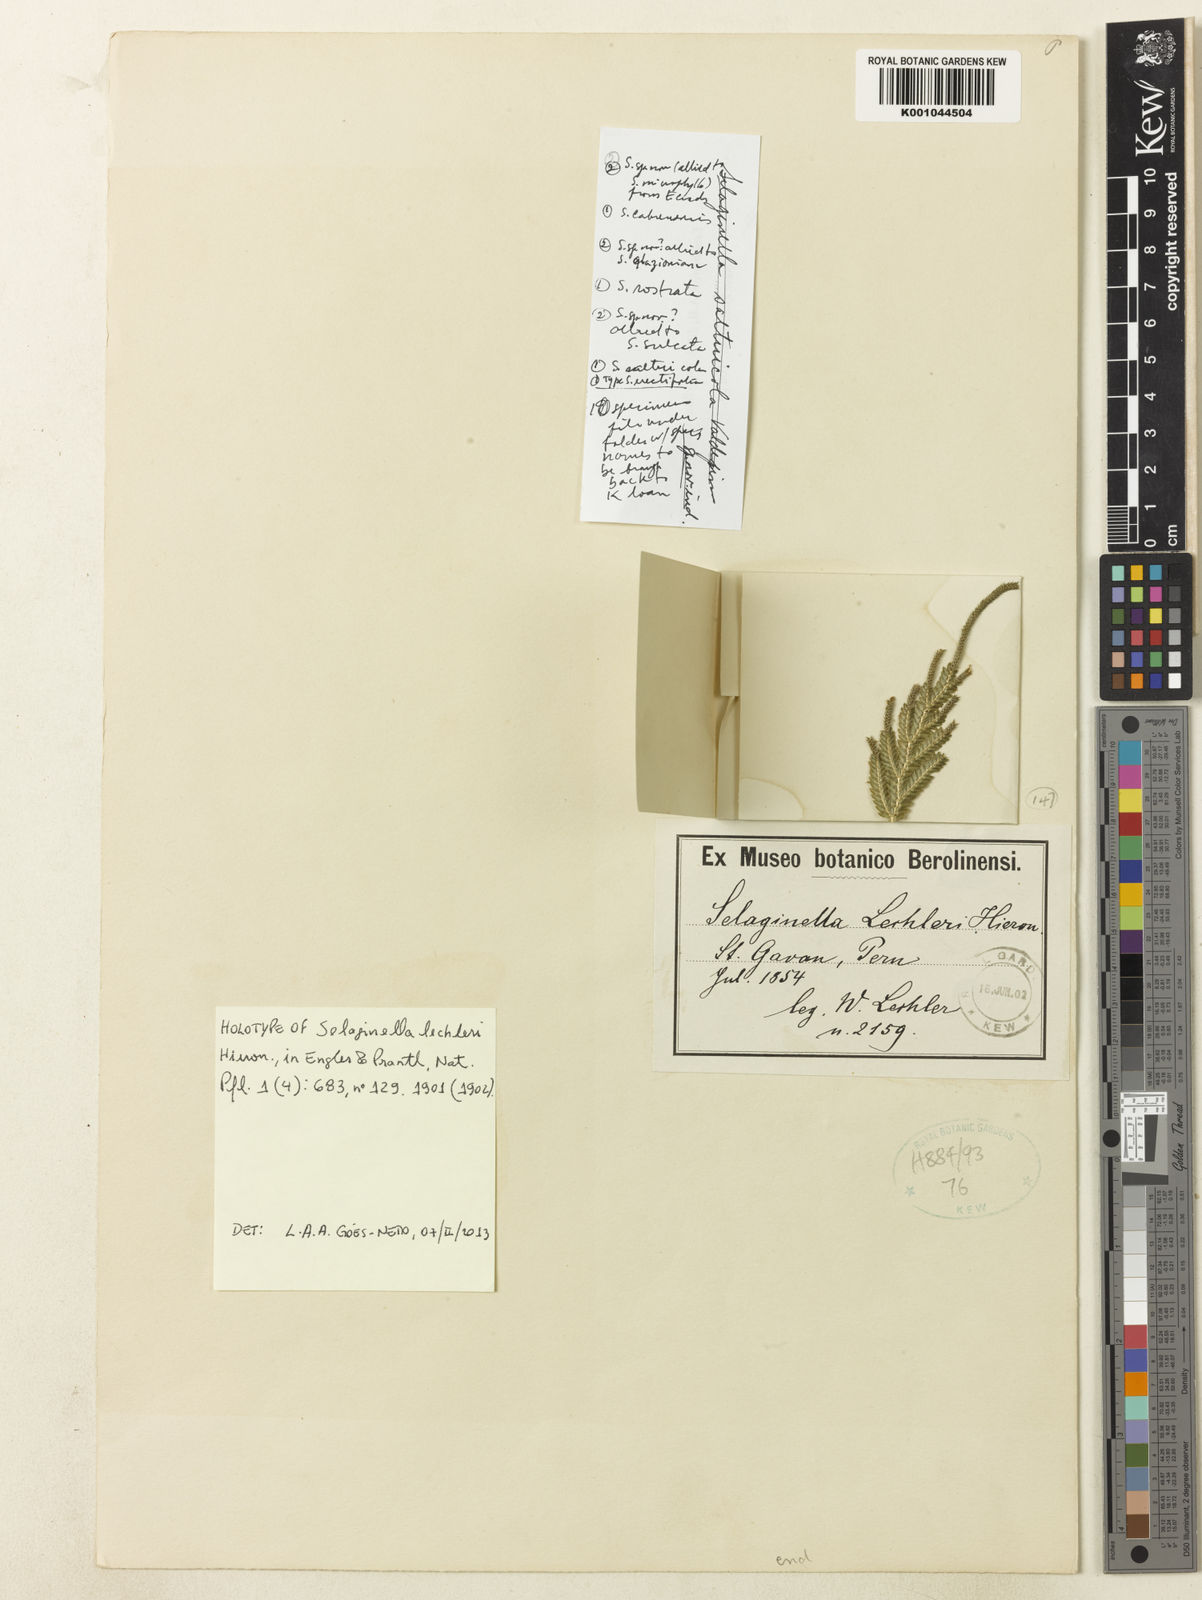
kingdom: Plantae
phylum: Tracheophyta
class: Lycopodiopsida
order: Selaginellales
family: Selaginellaceae
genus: Selaginella
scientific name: Selaginella lechleri
